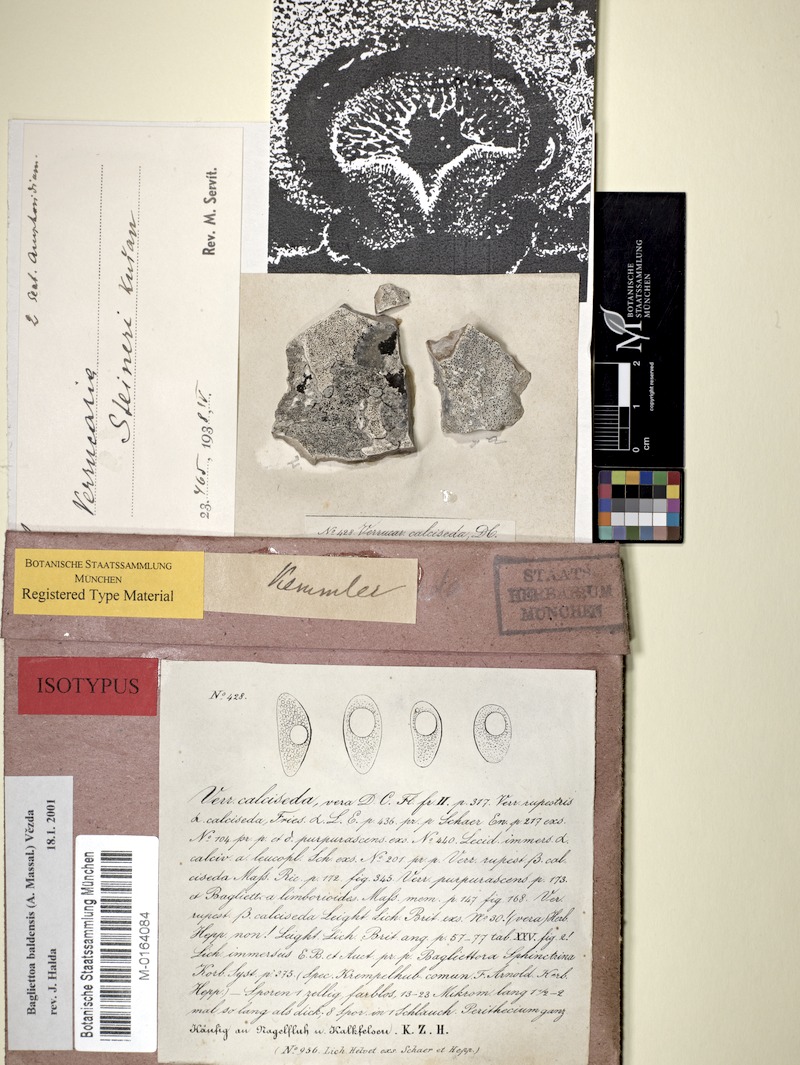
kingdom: Fungi
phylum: Ascomycota
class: Eurotiomycetes
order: Verrucariales
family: Verrucariaceae
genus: Bagliettoa
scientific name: Bagliettoa steineri
